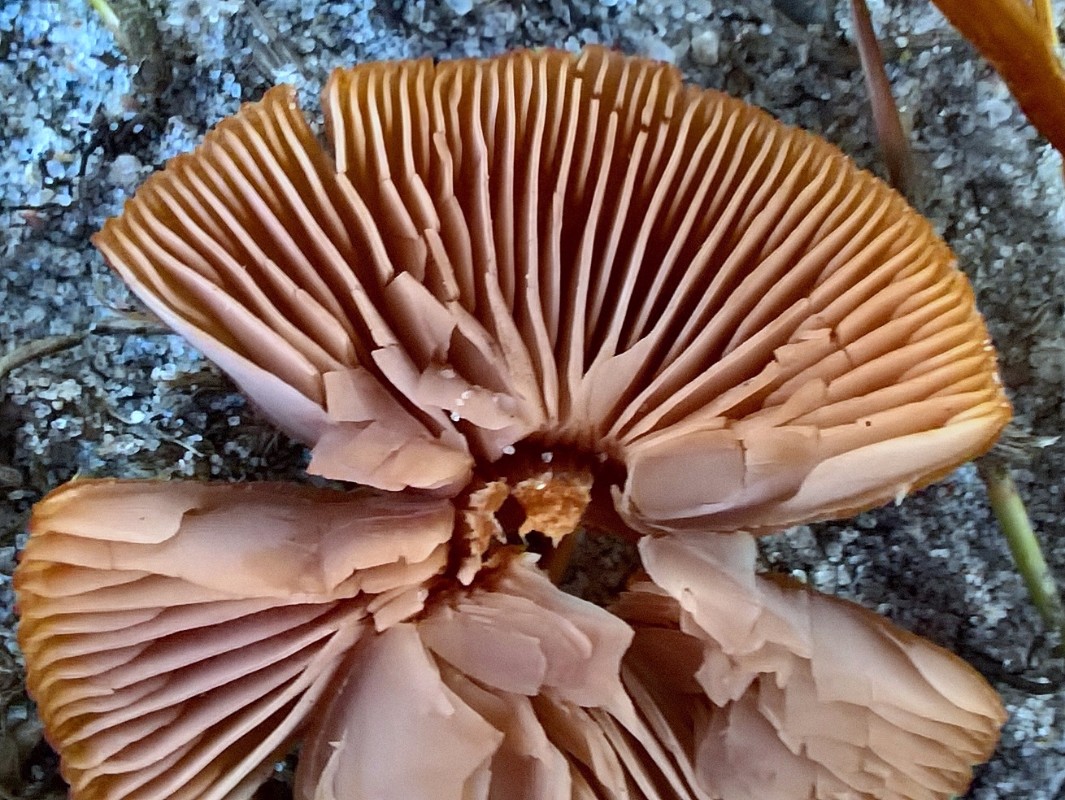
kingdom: Fungi
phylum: Basidiomycota
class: Agaricomycetes
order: Agaricales
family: Hydnangiaceae
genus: Laccaria
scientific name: Laccaria proxima
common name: stor ametysthat
